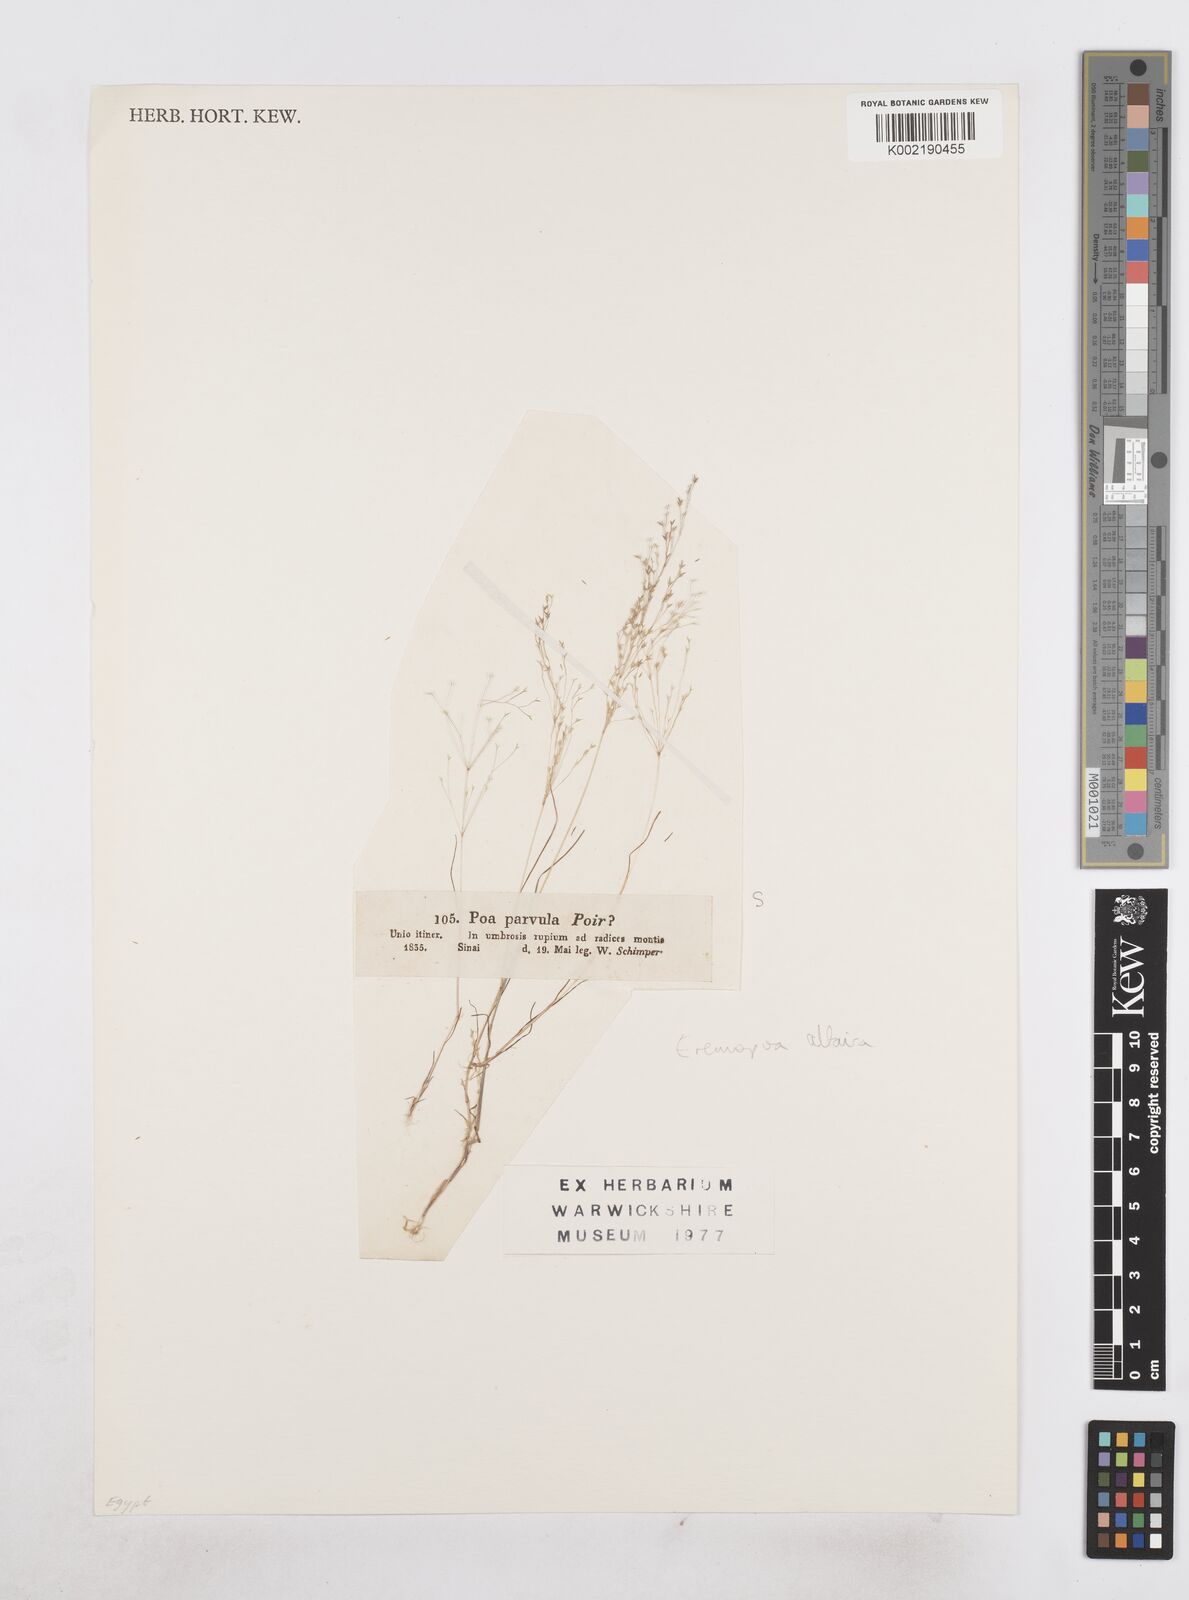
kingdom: Plantae
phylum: Tracheophyta
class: Liliopsida
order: Poales
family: Poaceae
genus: Poa
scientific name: Poa diaphora
